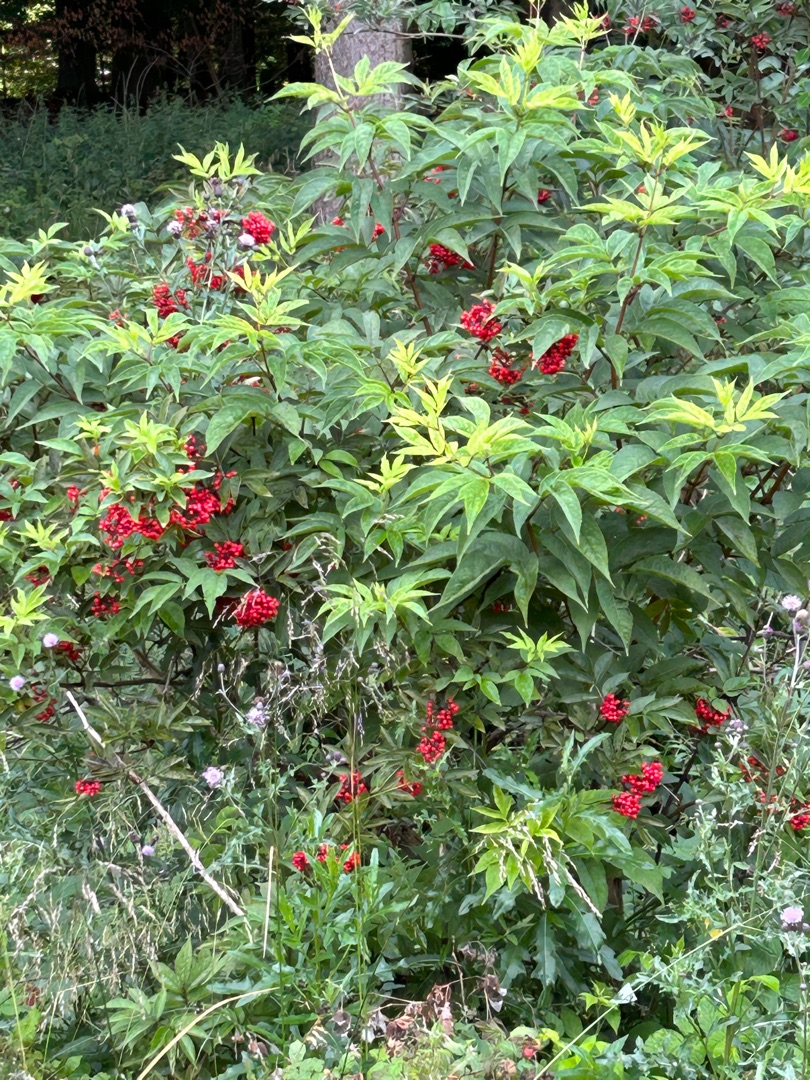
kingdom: Plantae
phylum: Tracheophyta
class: Magnoliopsida
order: Dipsacales
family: Viburnaceae
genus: Sambucus
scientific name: Sambucus racemosa
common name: Drue-hyld
